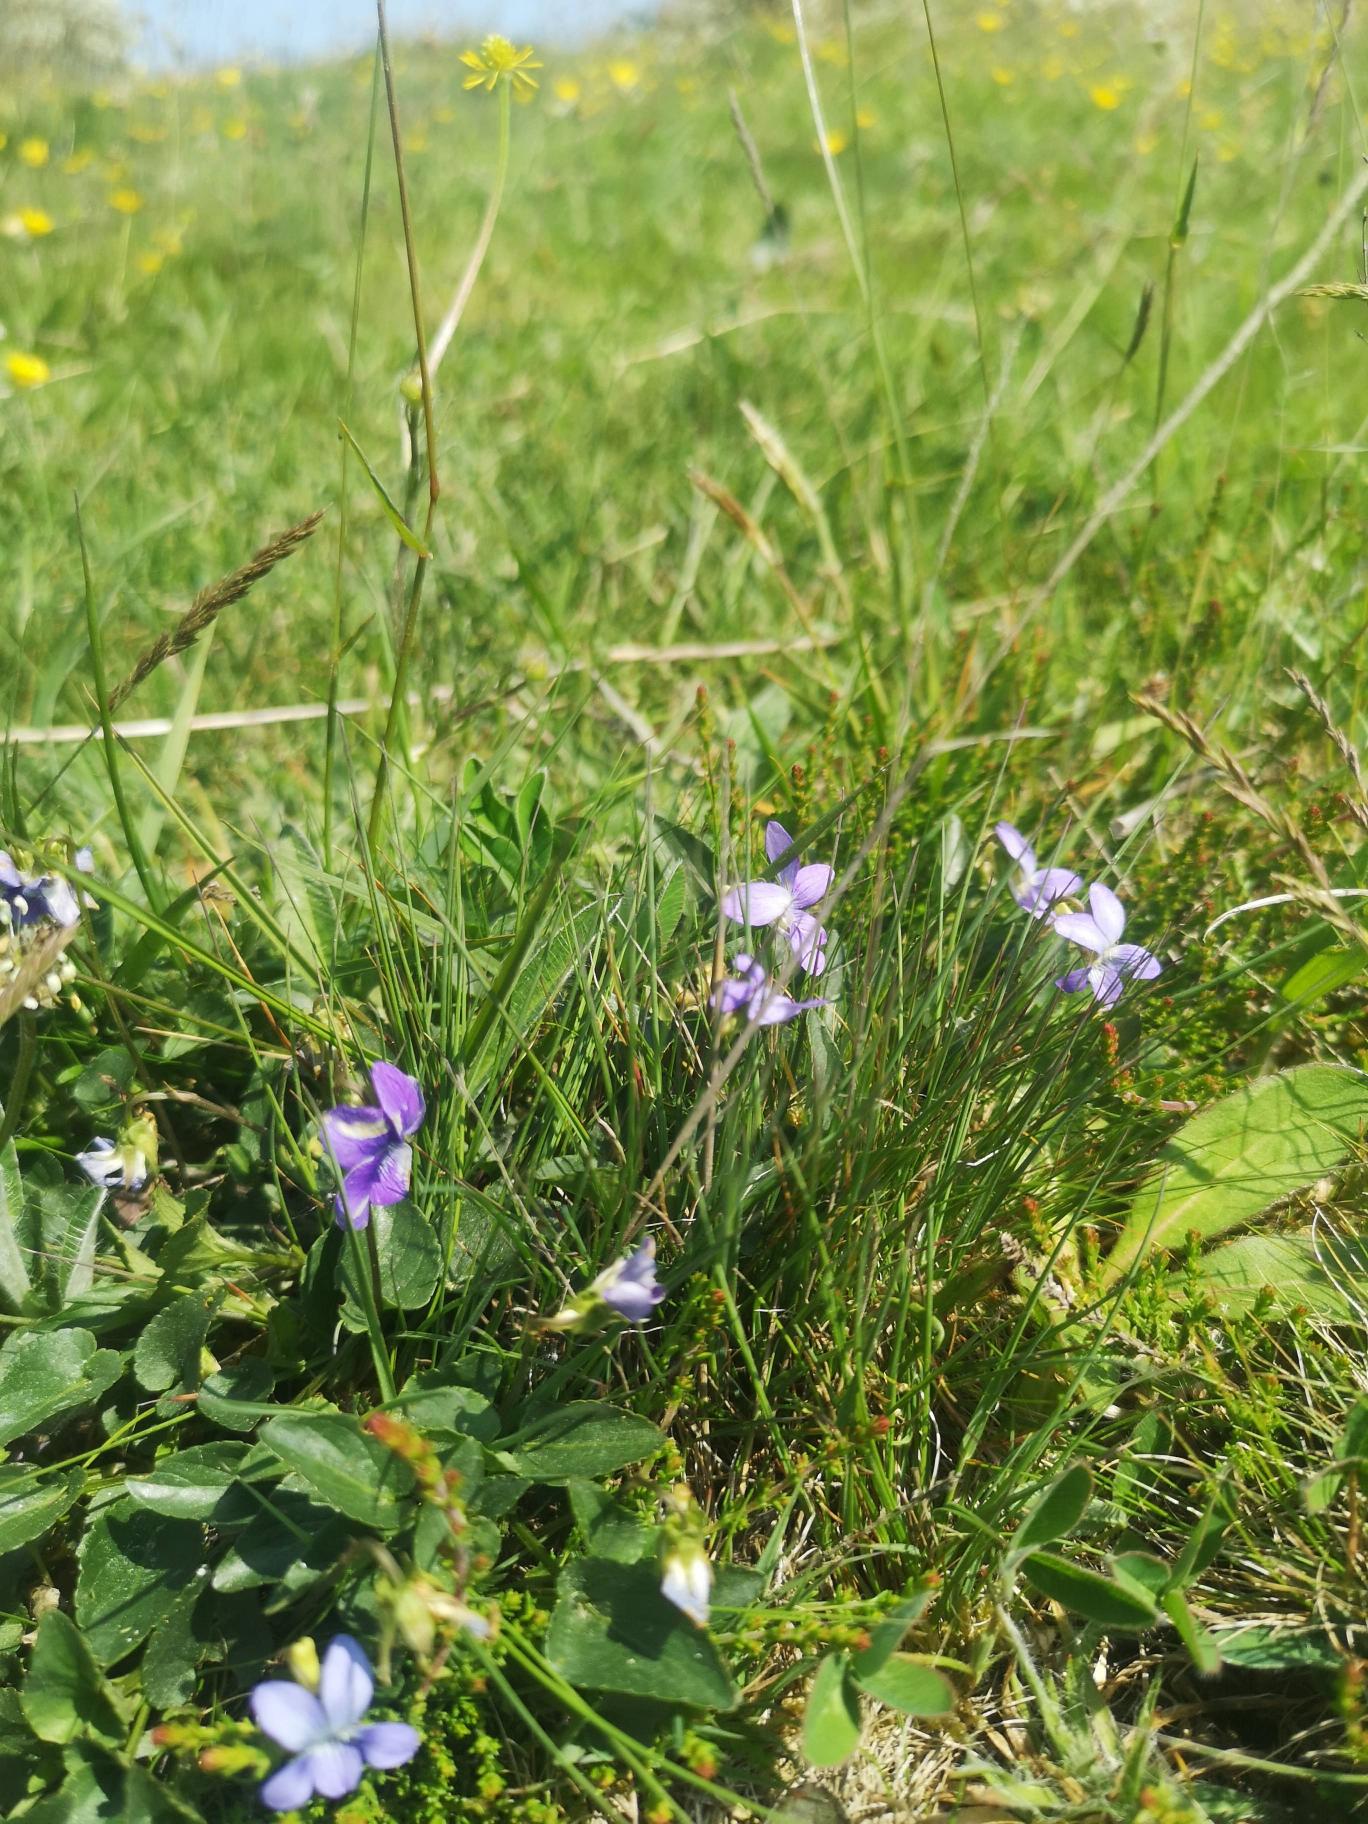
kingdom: Plantae
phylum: Tracheophyta
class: Magnoliopsida
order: Malpighiales
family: Violaceae
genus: Viola
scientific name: Viola canina
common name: Hunde-viol
